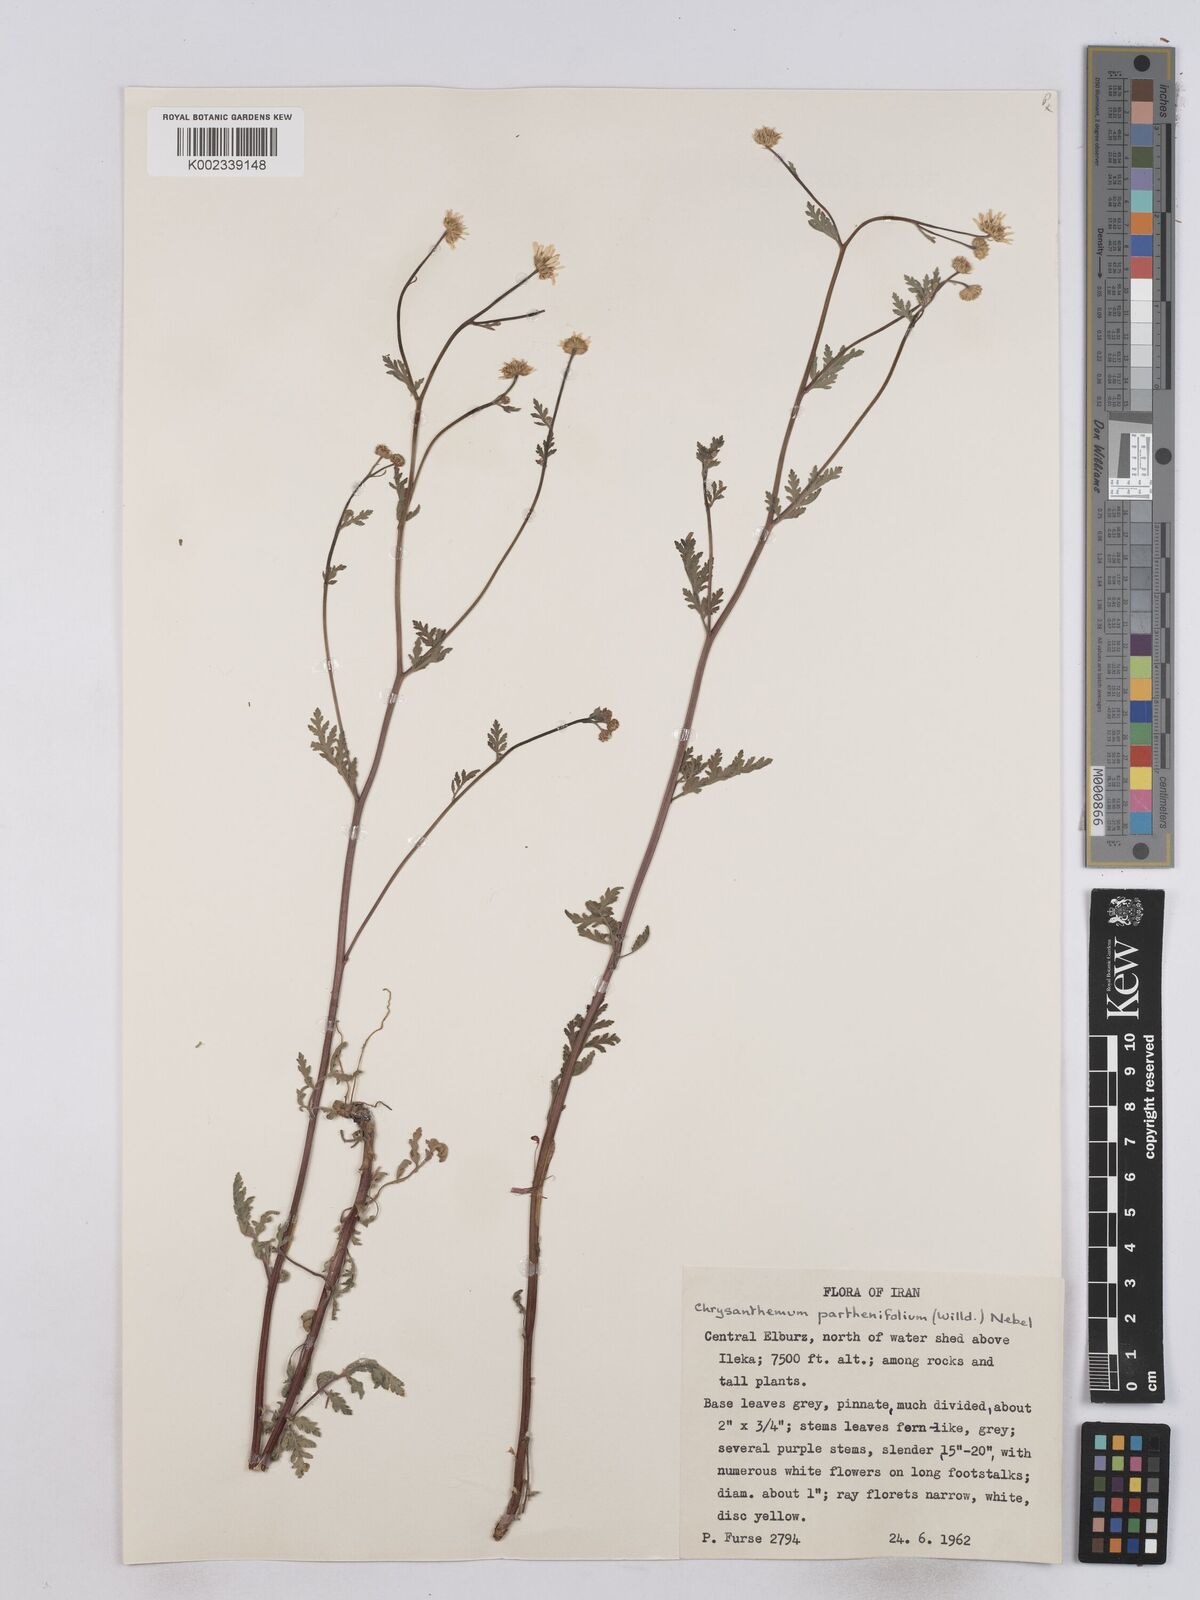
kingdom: Plantae
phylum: Tracheophyta
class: Magnoliopsida
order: Asterales
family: Asteraceae
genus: Tanacetum
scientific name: Tanacetum partheniifolium
